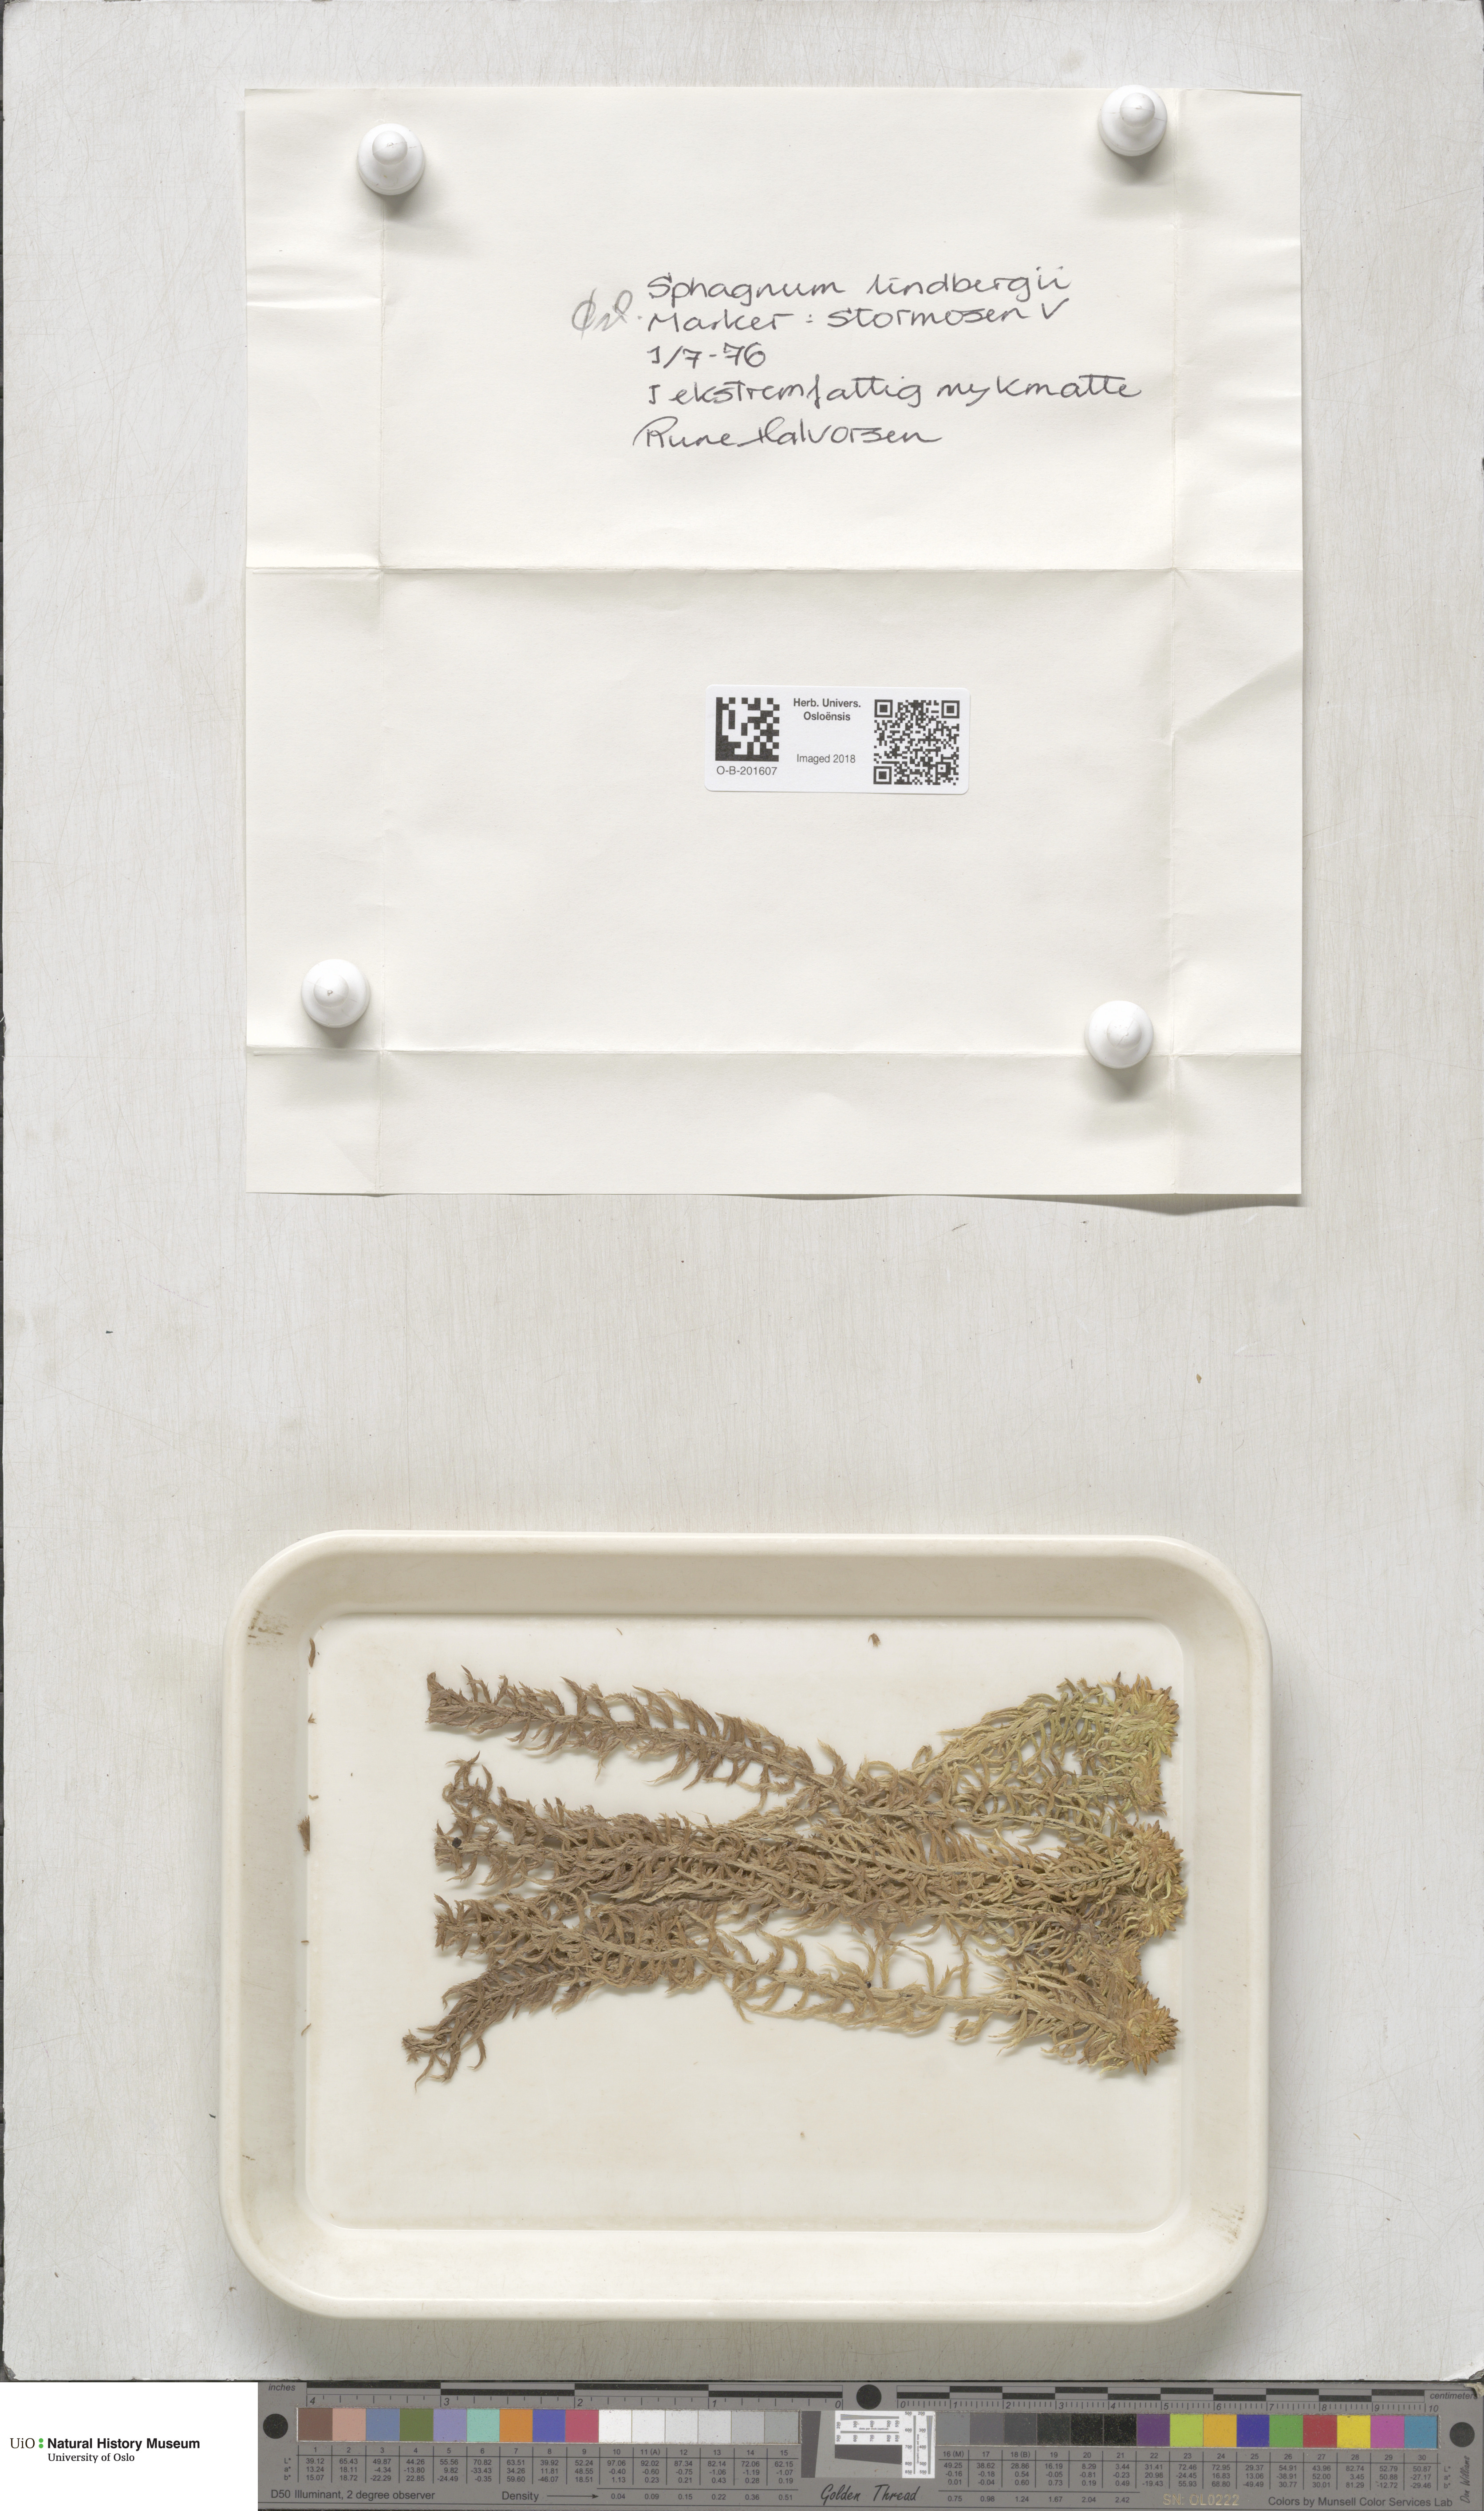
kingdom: Plantae
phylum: Bryophyta
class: Sphagnopsida
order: Sphagnales
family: Sphagnaceae
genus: Sphagnum
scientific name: Sphagnum lindbergii
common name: Lindberg's peat moss
